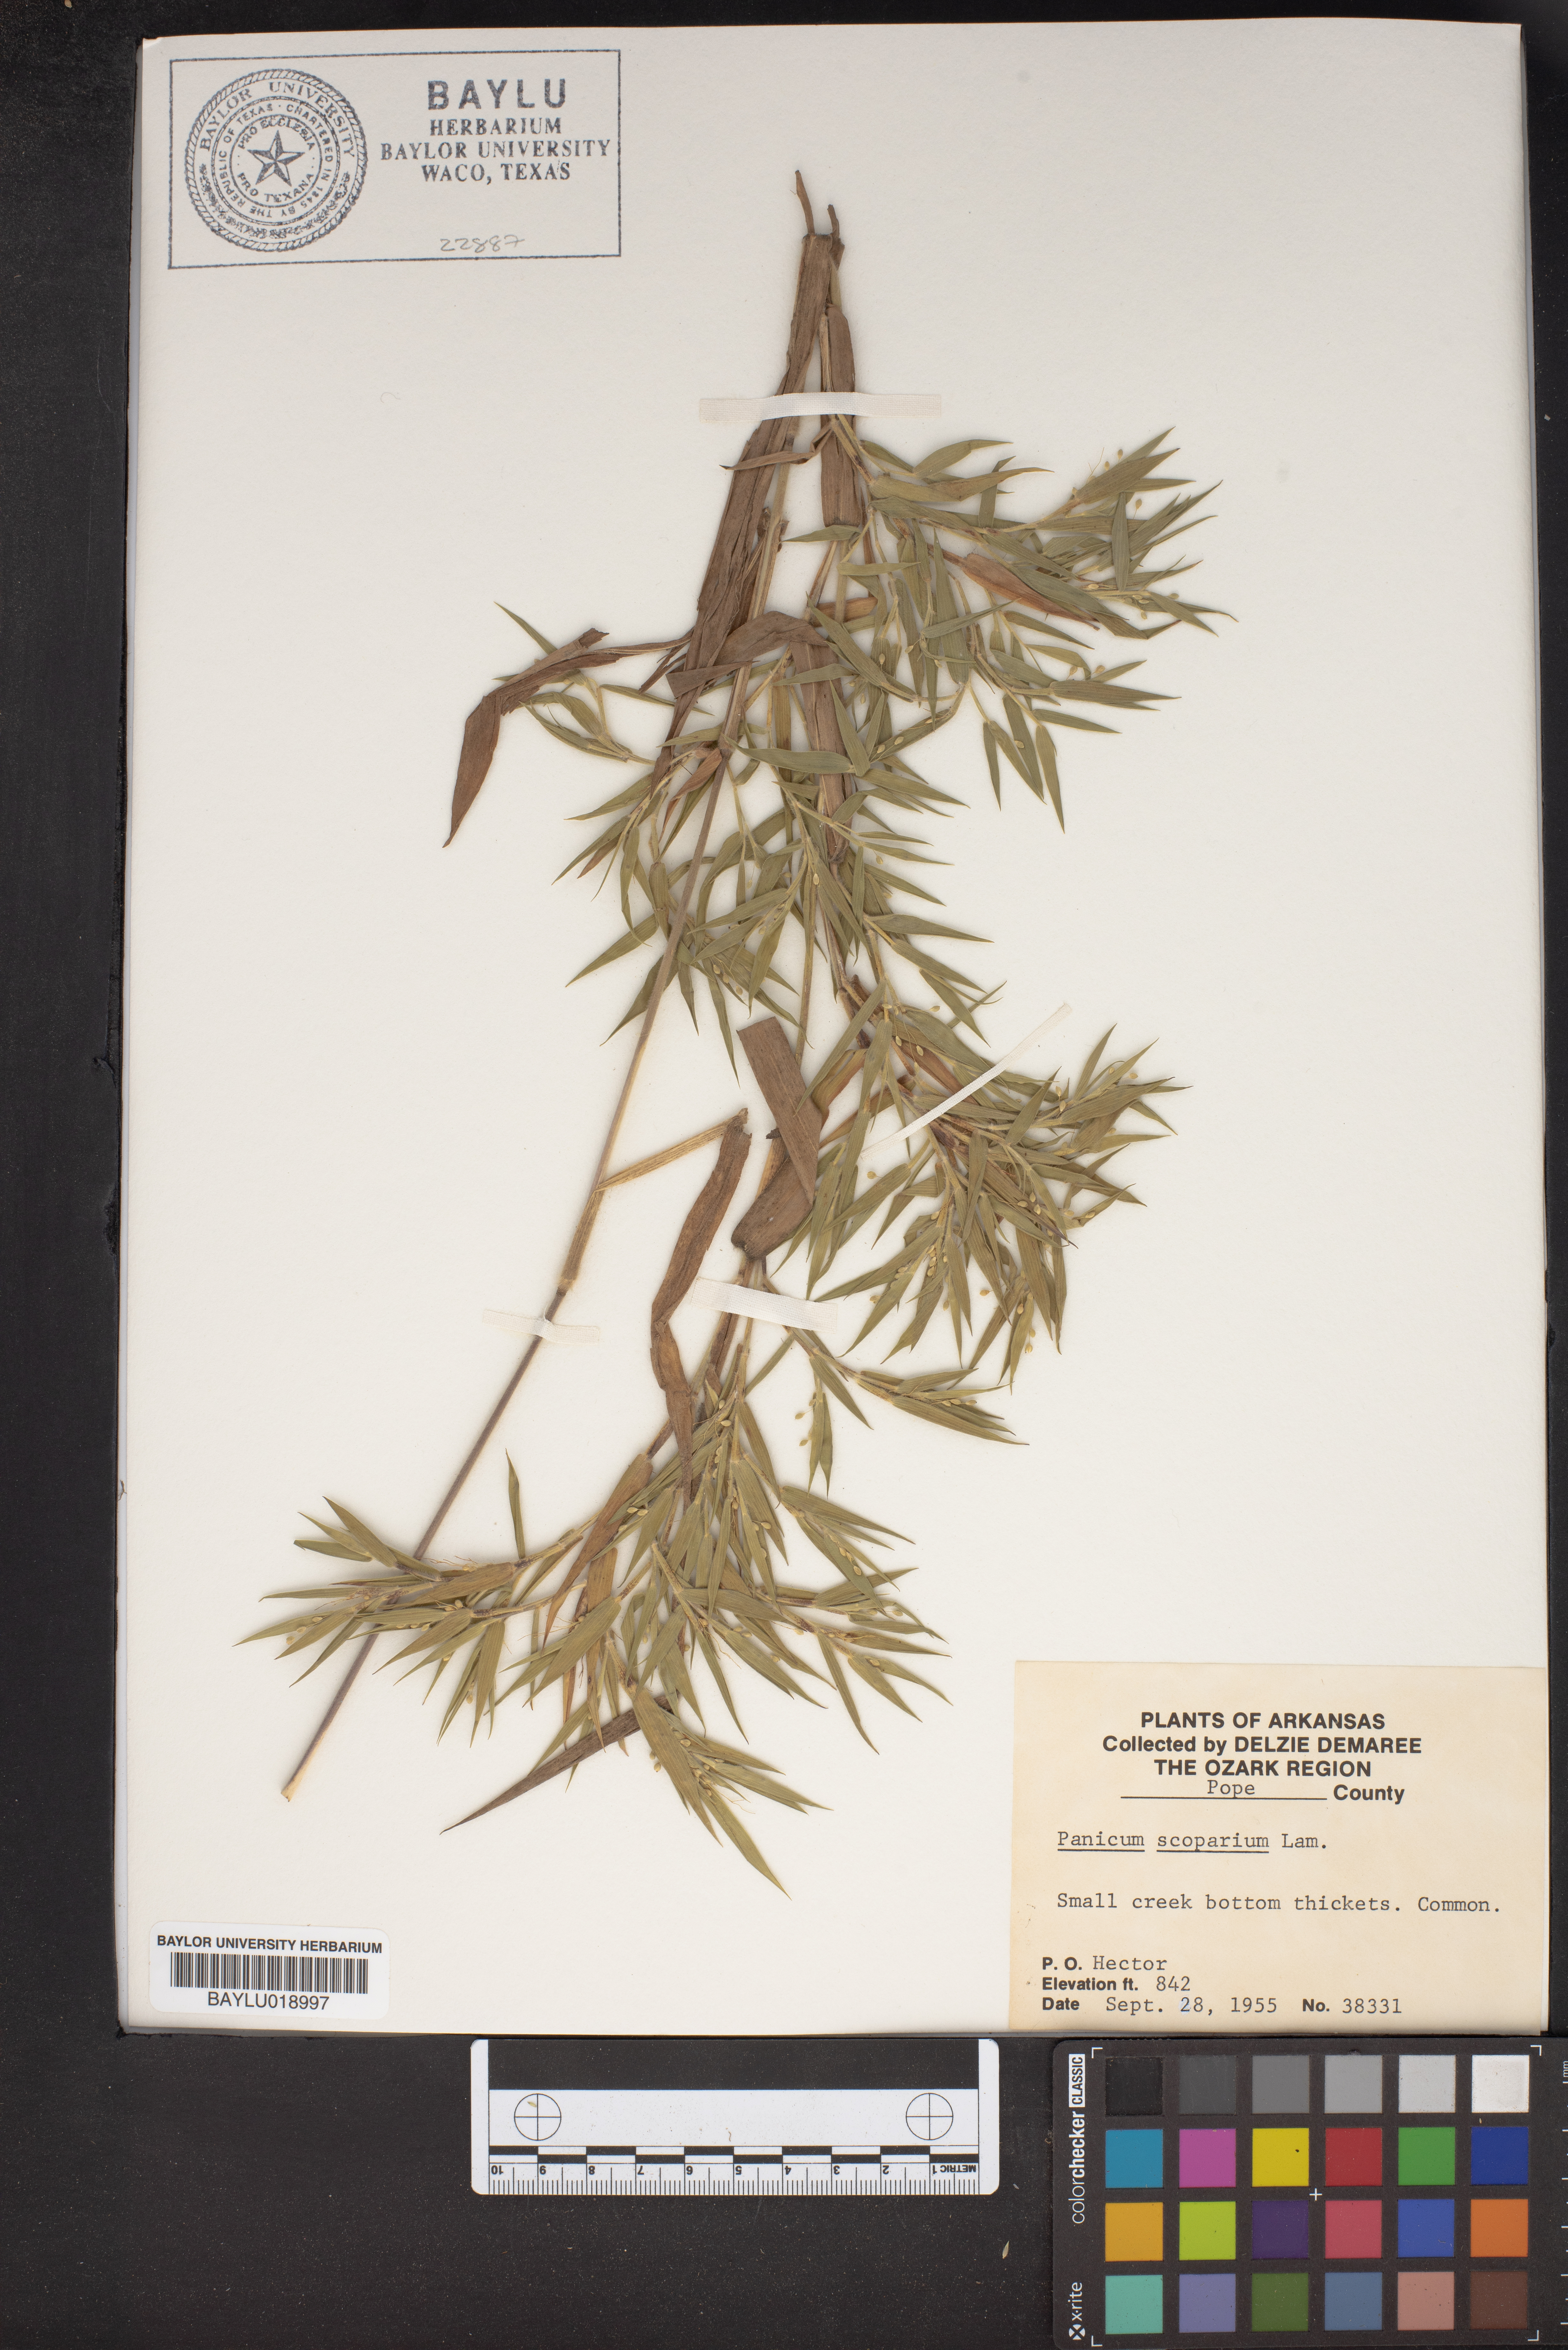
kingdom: Plantae
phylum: Tracheophyta
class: Liliopsida
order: Poales
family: Poaceae
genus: Dichanthelium
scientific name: Dichanthelium scribnerianum
